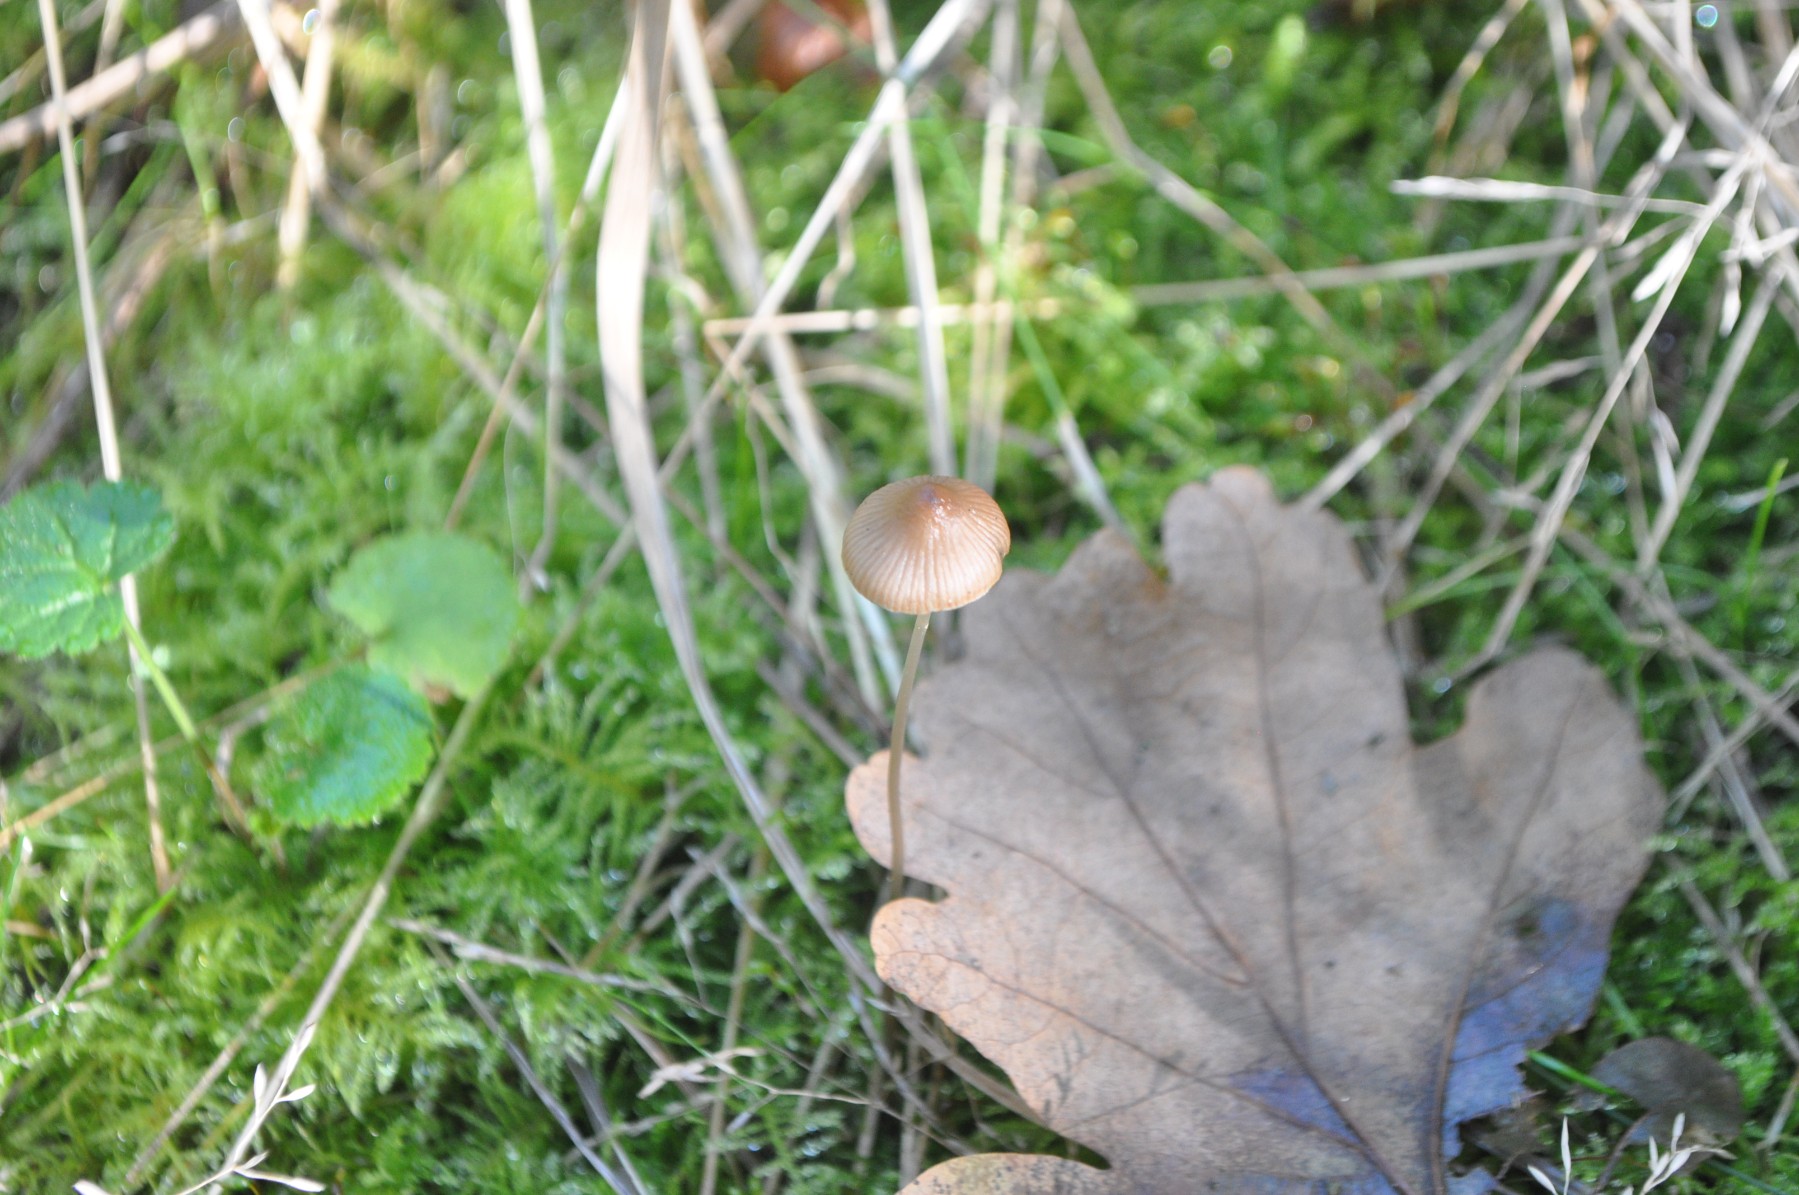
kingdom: Fungi
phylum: Basidiomycota
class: Agaricomycetes
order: Agaricales
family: Mycenaceae
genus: Mycena
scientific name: Mycena
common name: huesvamp
